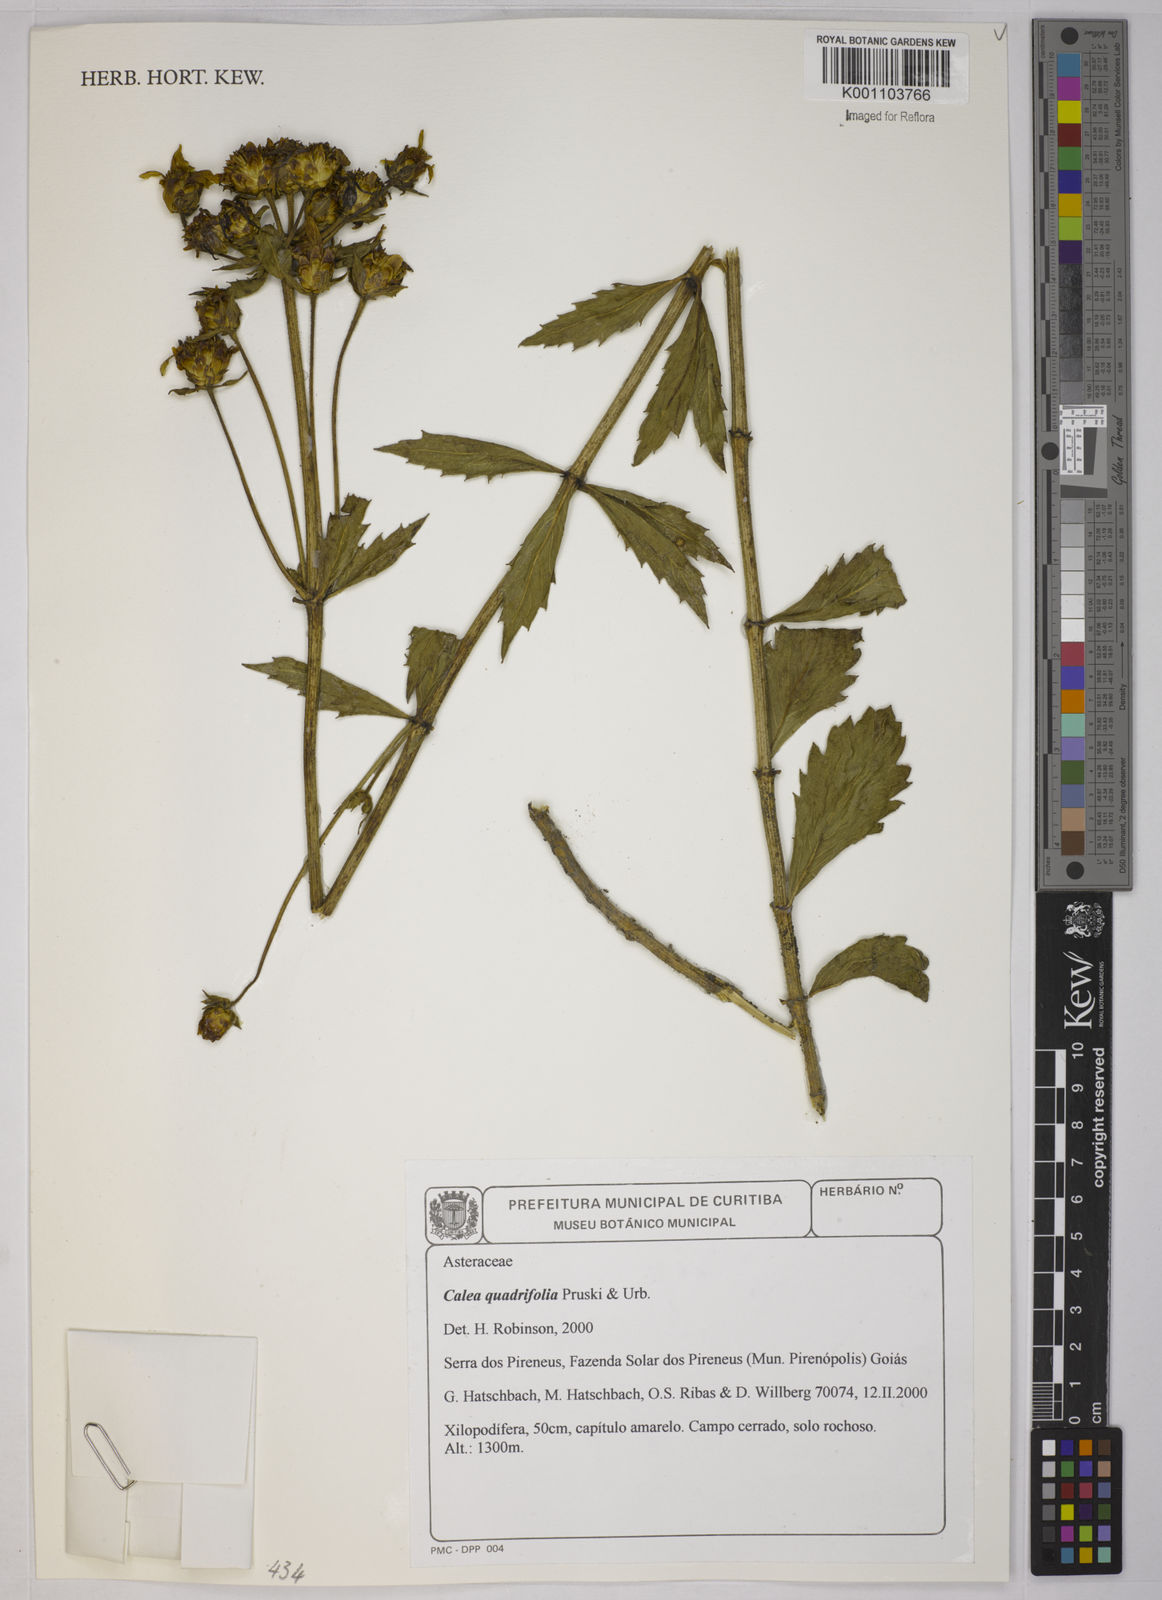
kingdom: Plantae
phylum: Tracheophyta
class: Magnoliopsida
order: Asterales
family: Asteraceae
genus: Calea
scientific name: Calea quadrifolia
